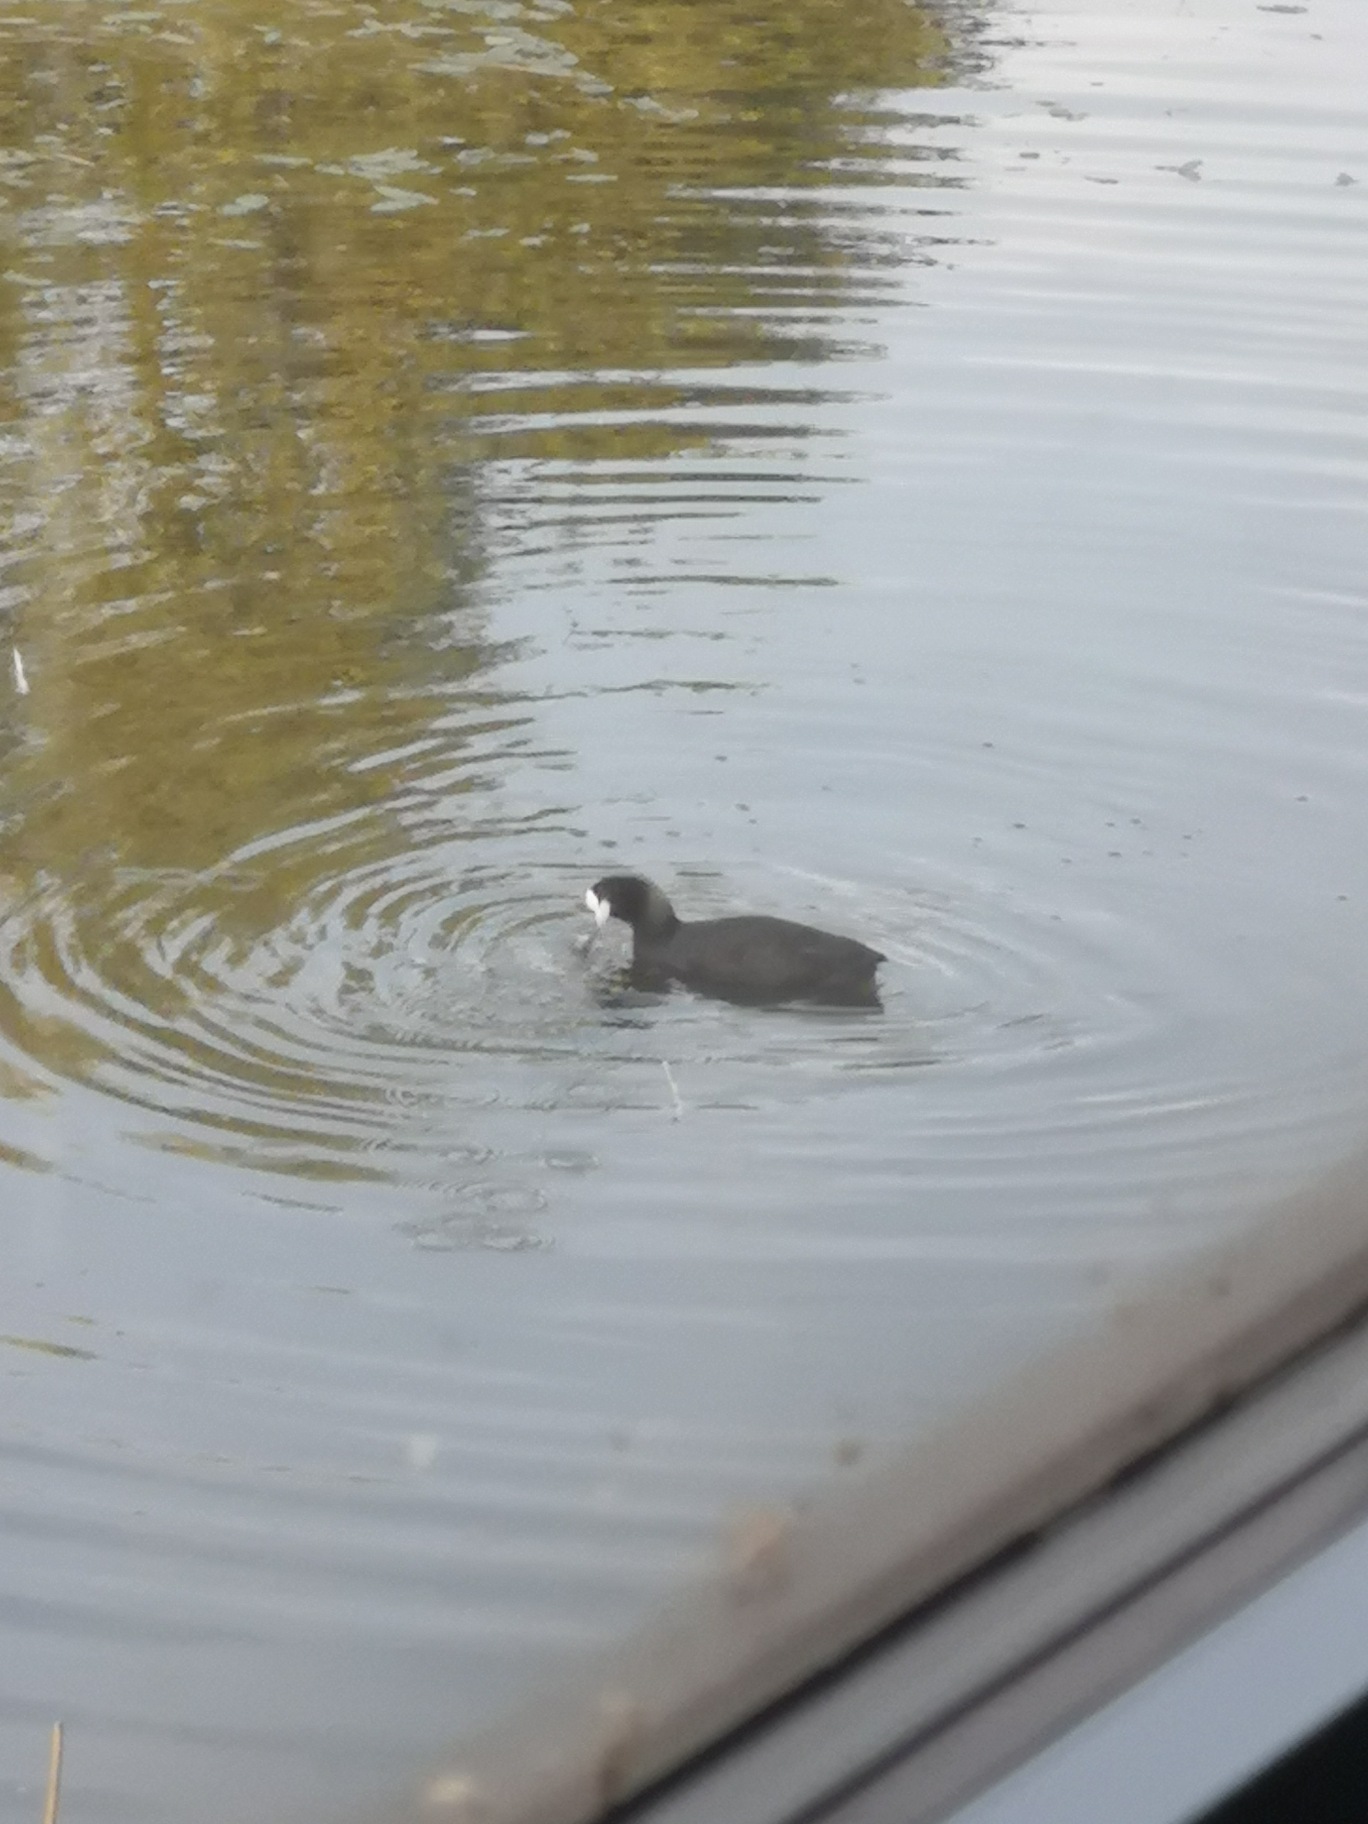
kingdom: Animalia
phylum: Chordata
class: Aves
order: Gruiformes
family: Rallidae
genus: Fulica
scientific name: Fulica atra
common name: Blishøne
